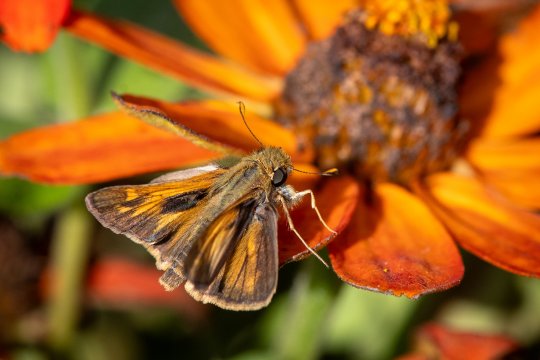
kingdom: Animalia
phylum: Arthropoda
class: Insecta
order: Lepidoptera
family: Hesperiidae
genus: Atalopedes
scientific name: Atalopedes campestris
